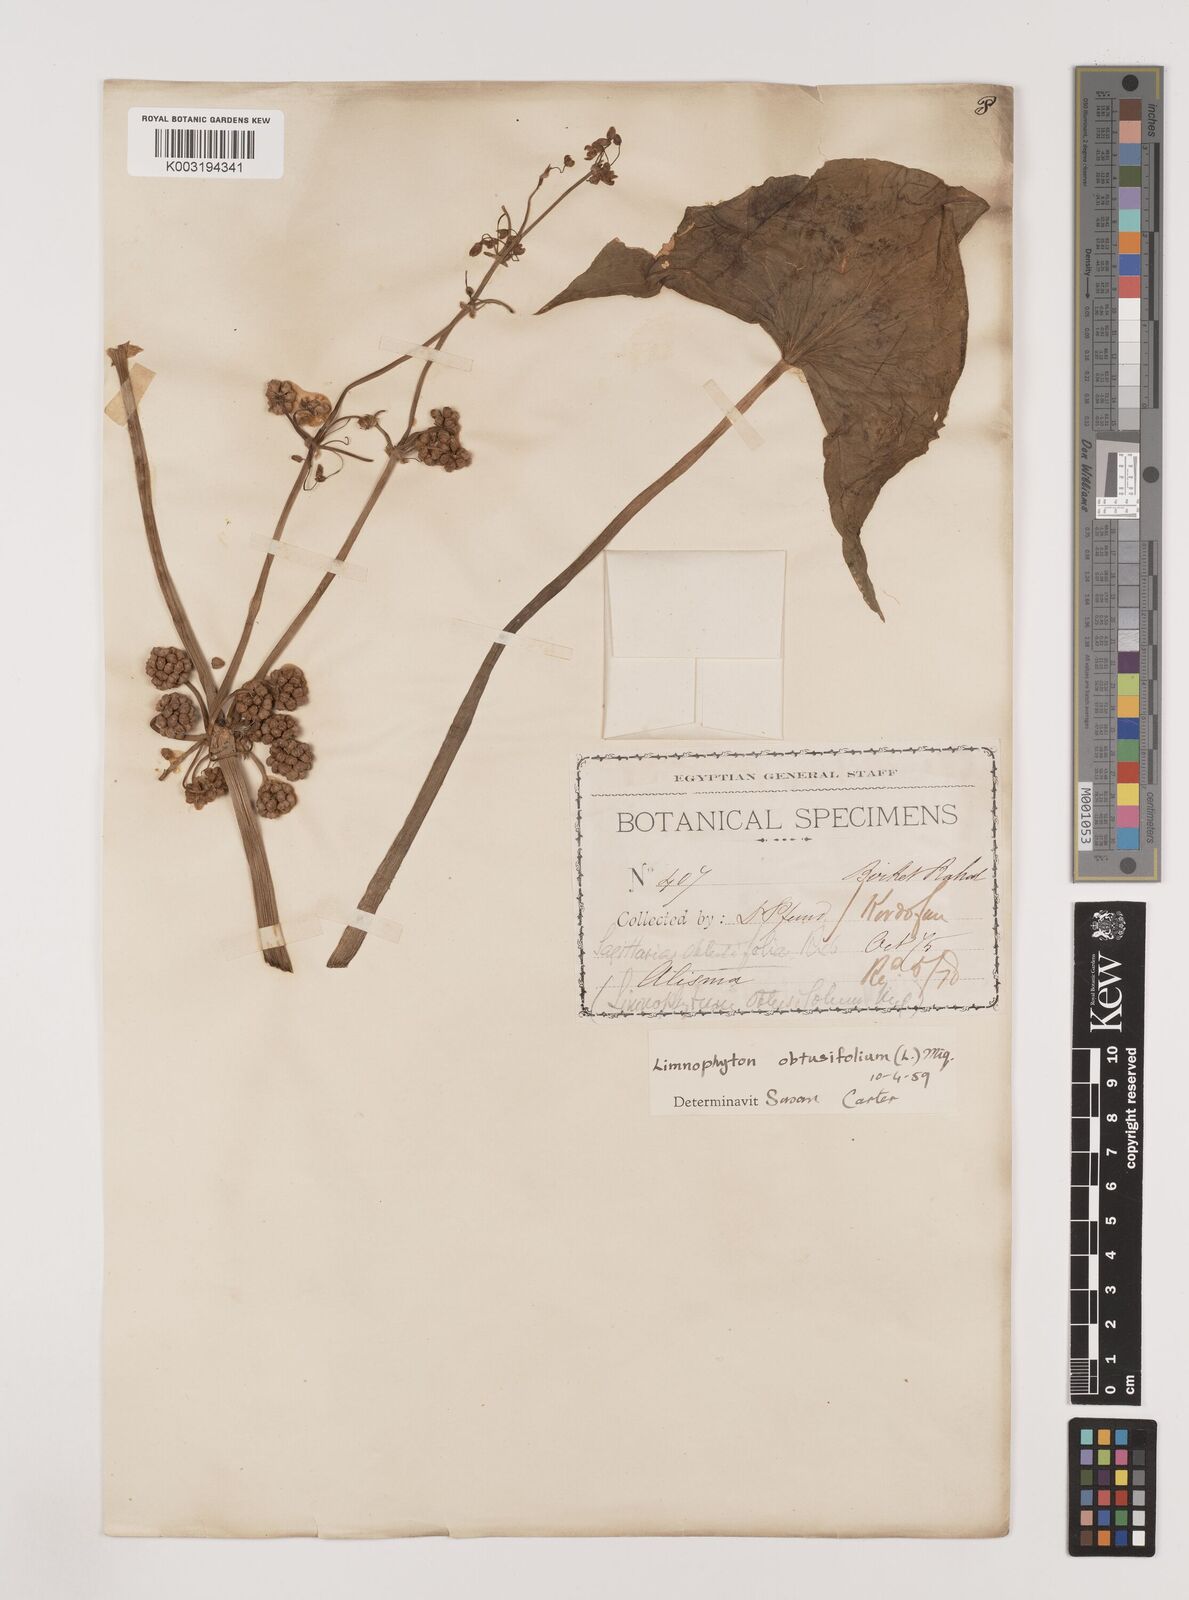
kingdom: Plantae
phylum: Tracheophyta
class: Liliopsida
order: Alismatales
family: Alismataceae
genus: Limnophyton
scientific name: Limnophyton obtusifolium
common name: Arrow head
